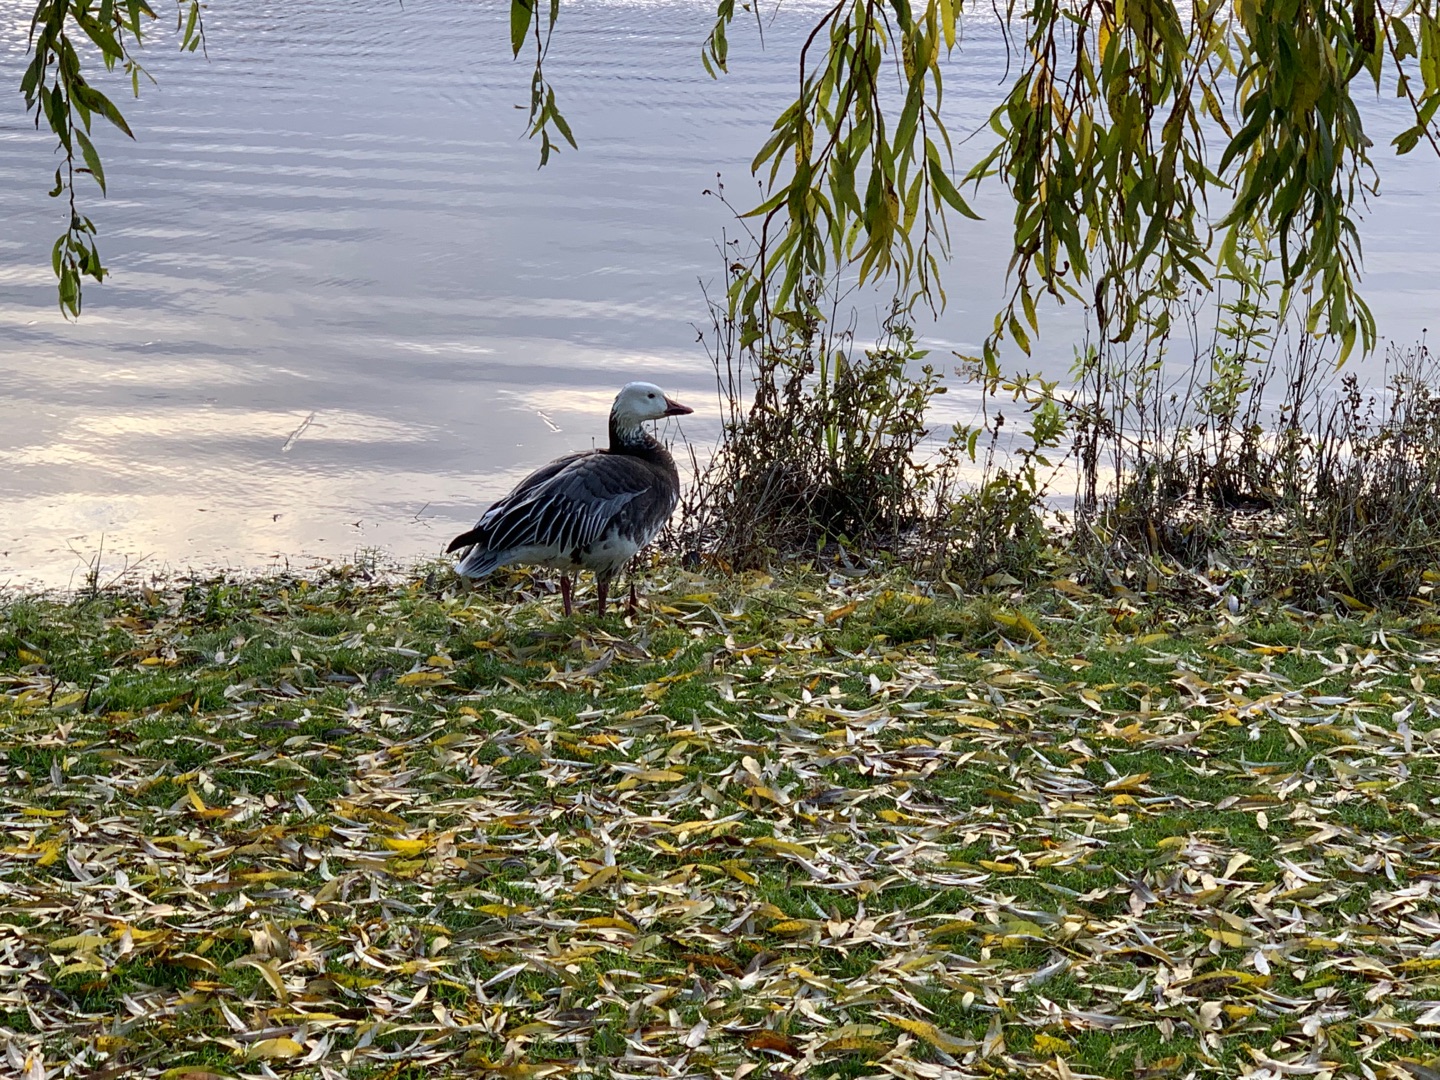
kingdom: Animalia
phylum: Chordata
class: Aves
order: Anseriformes
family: Anatidae
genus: Anser
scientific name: Anser caerulescens
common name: Snegås
